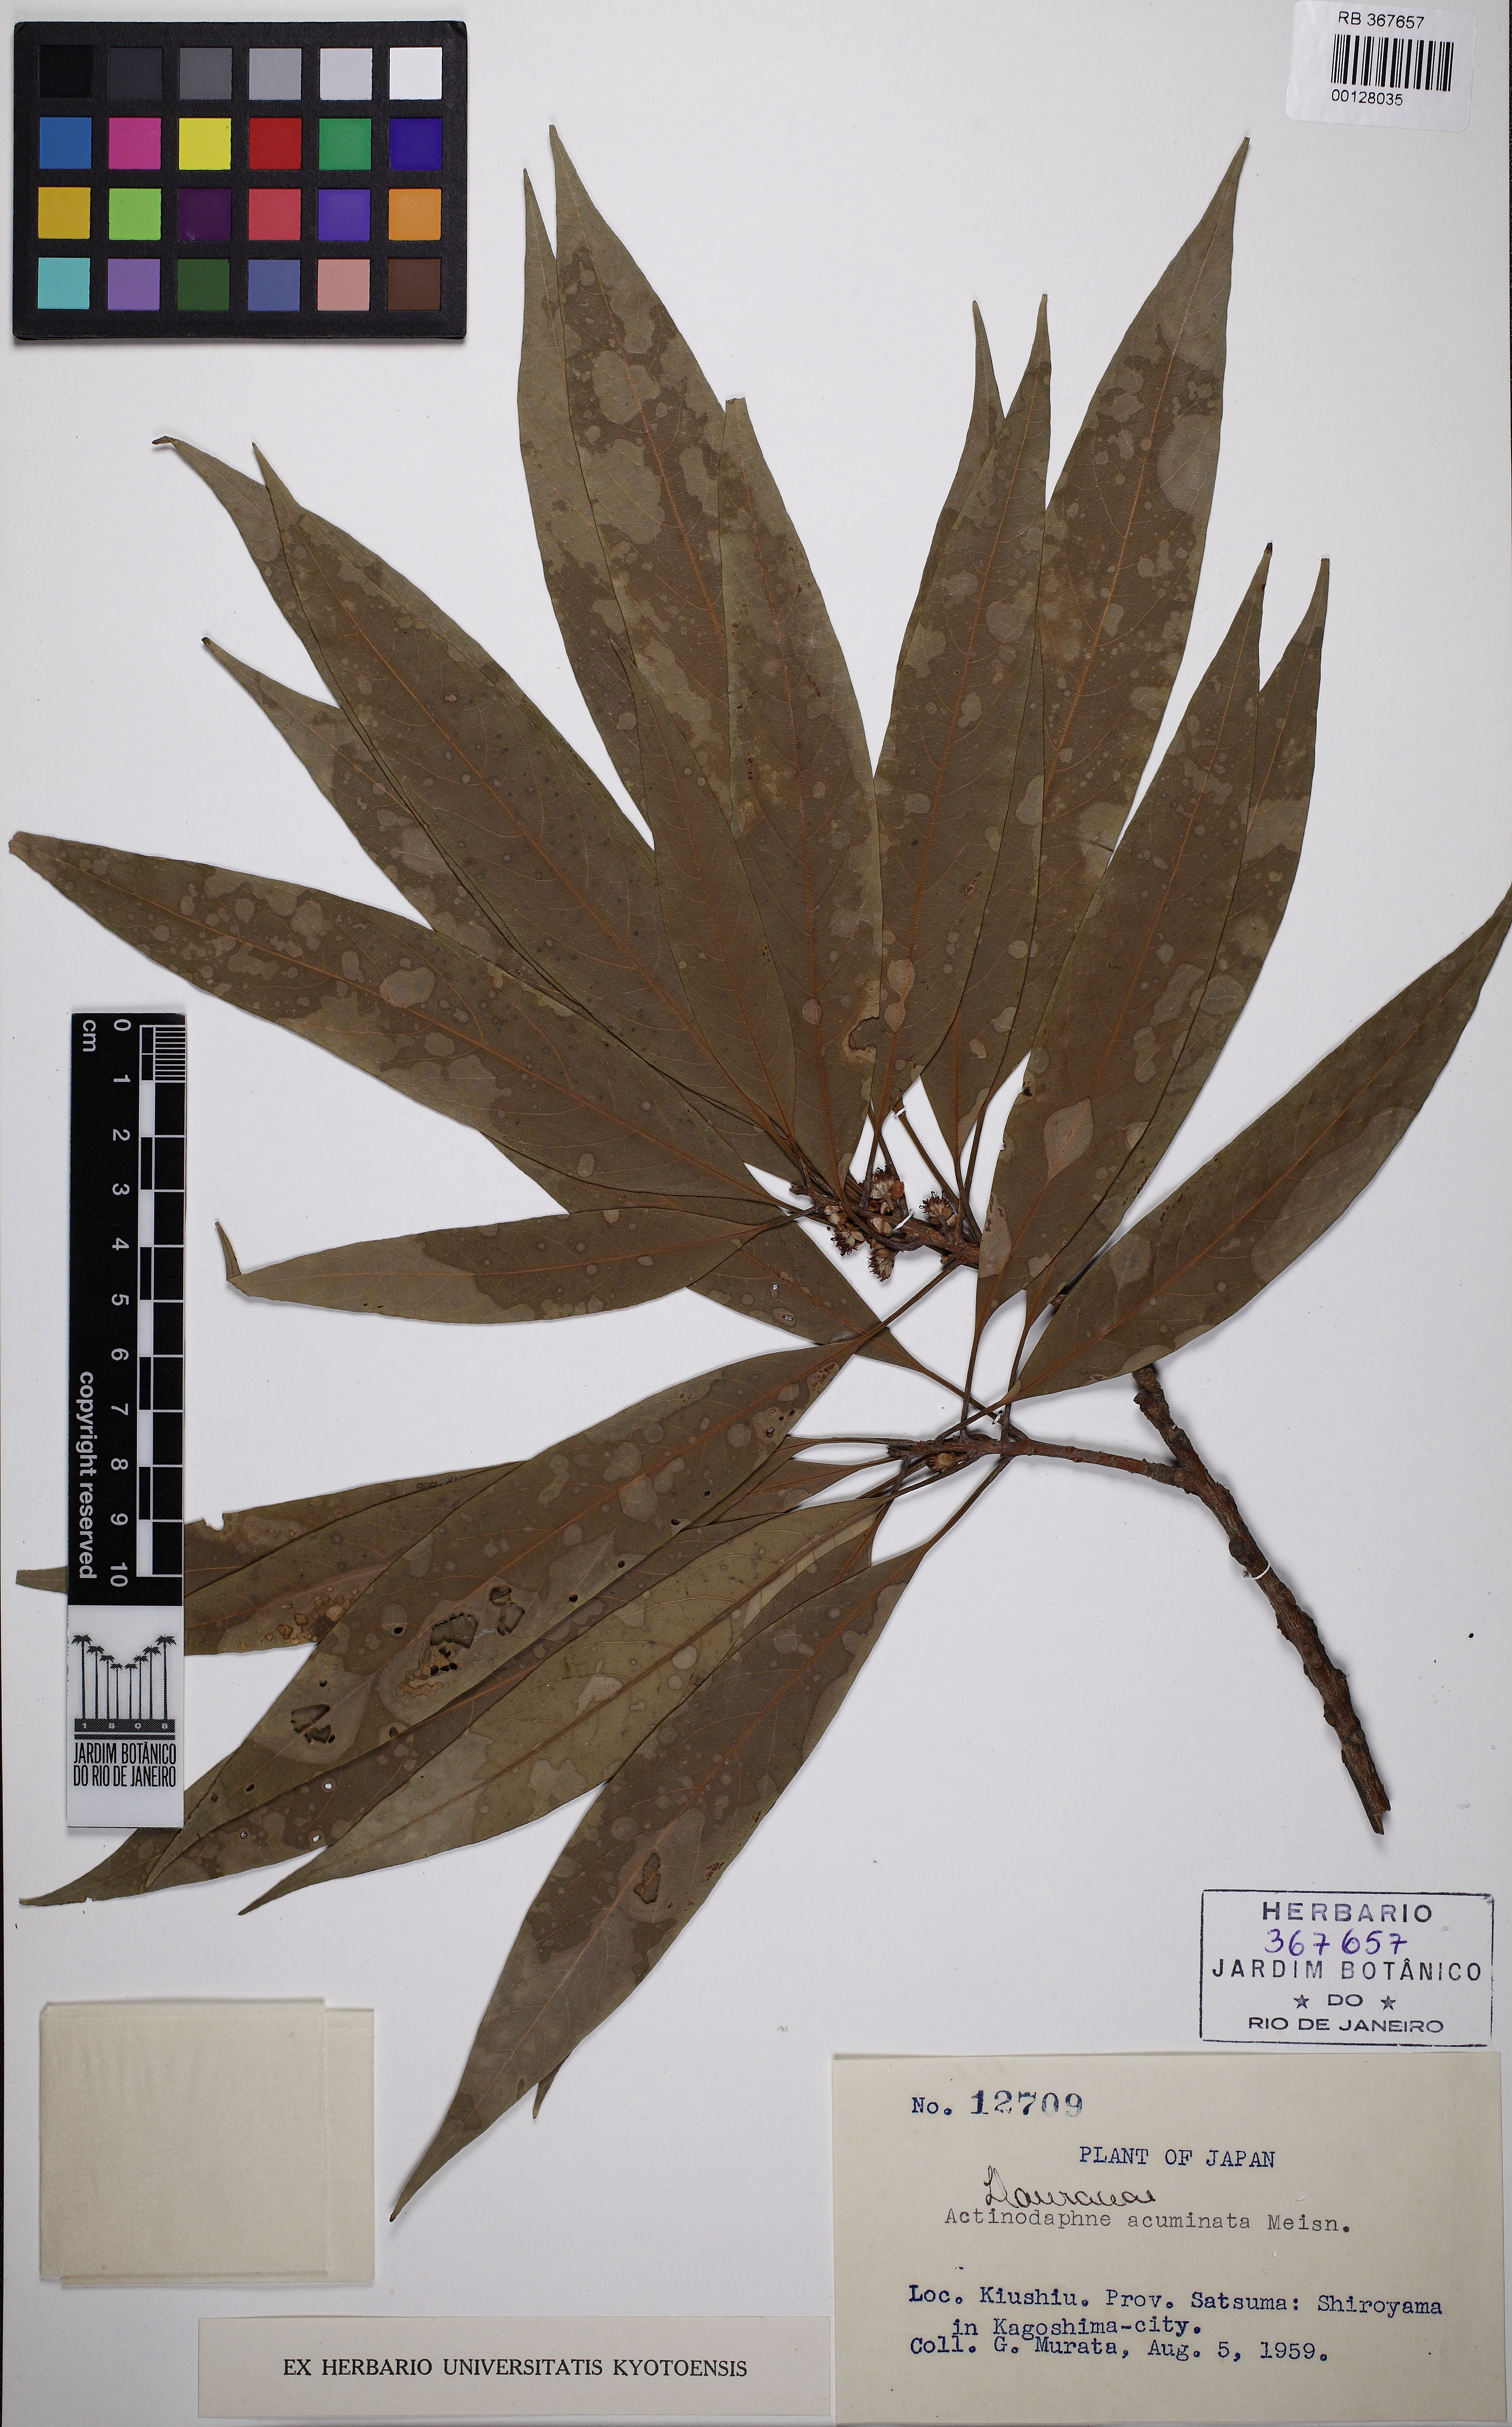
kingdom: Plantae
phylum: Tracheophyta
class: Magnoliopsida
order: Laurales
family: Lauraceae
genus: Actinodaphne
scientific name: Actinodaphne acuminata
